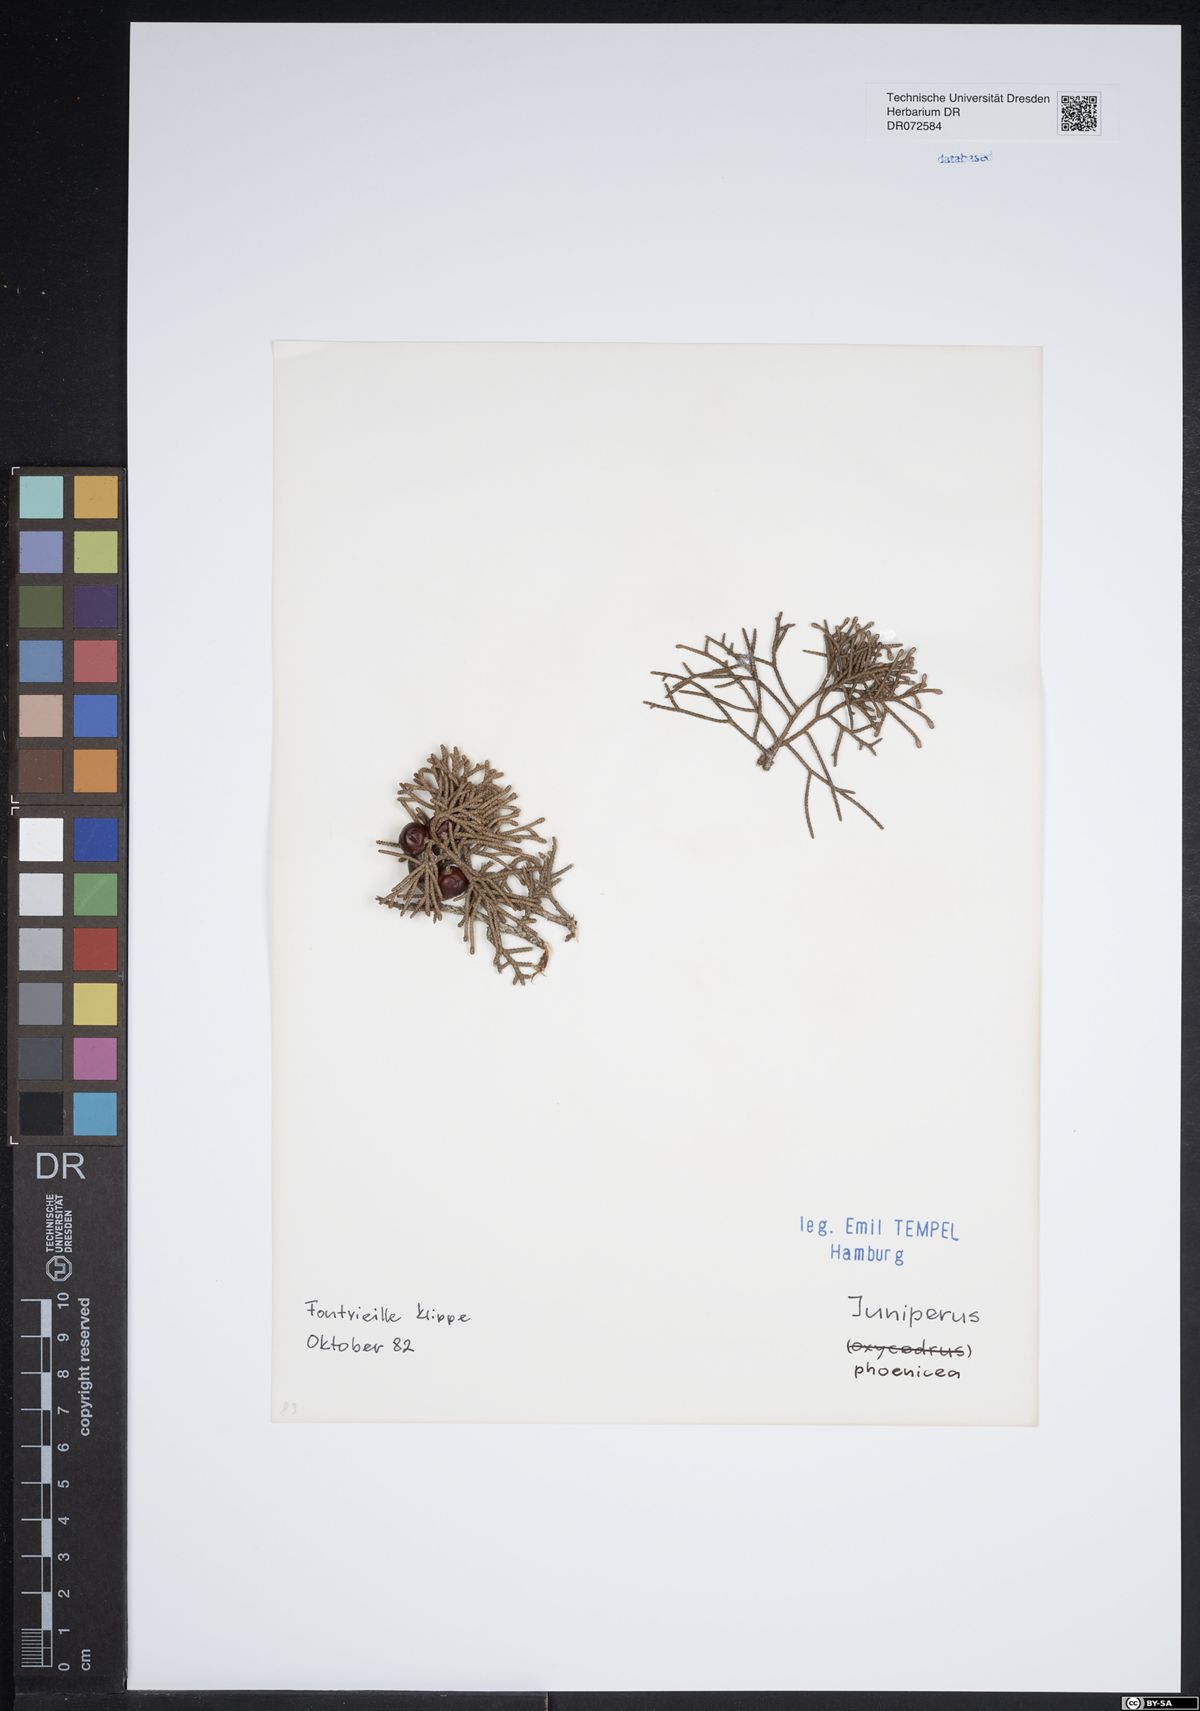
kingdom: Plantae
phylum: Tracheophyta
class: Pinopsida
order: Pinales
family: Cupressaceae
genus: Juniperus
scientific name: Juniperus phoenicea
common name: Phoenician juniper
